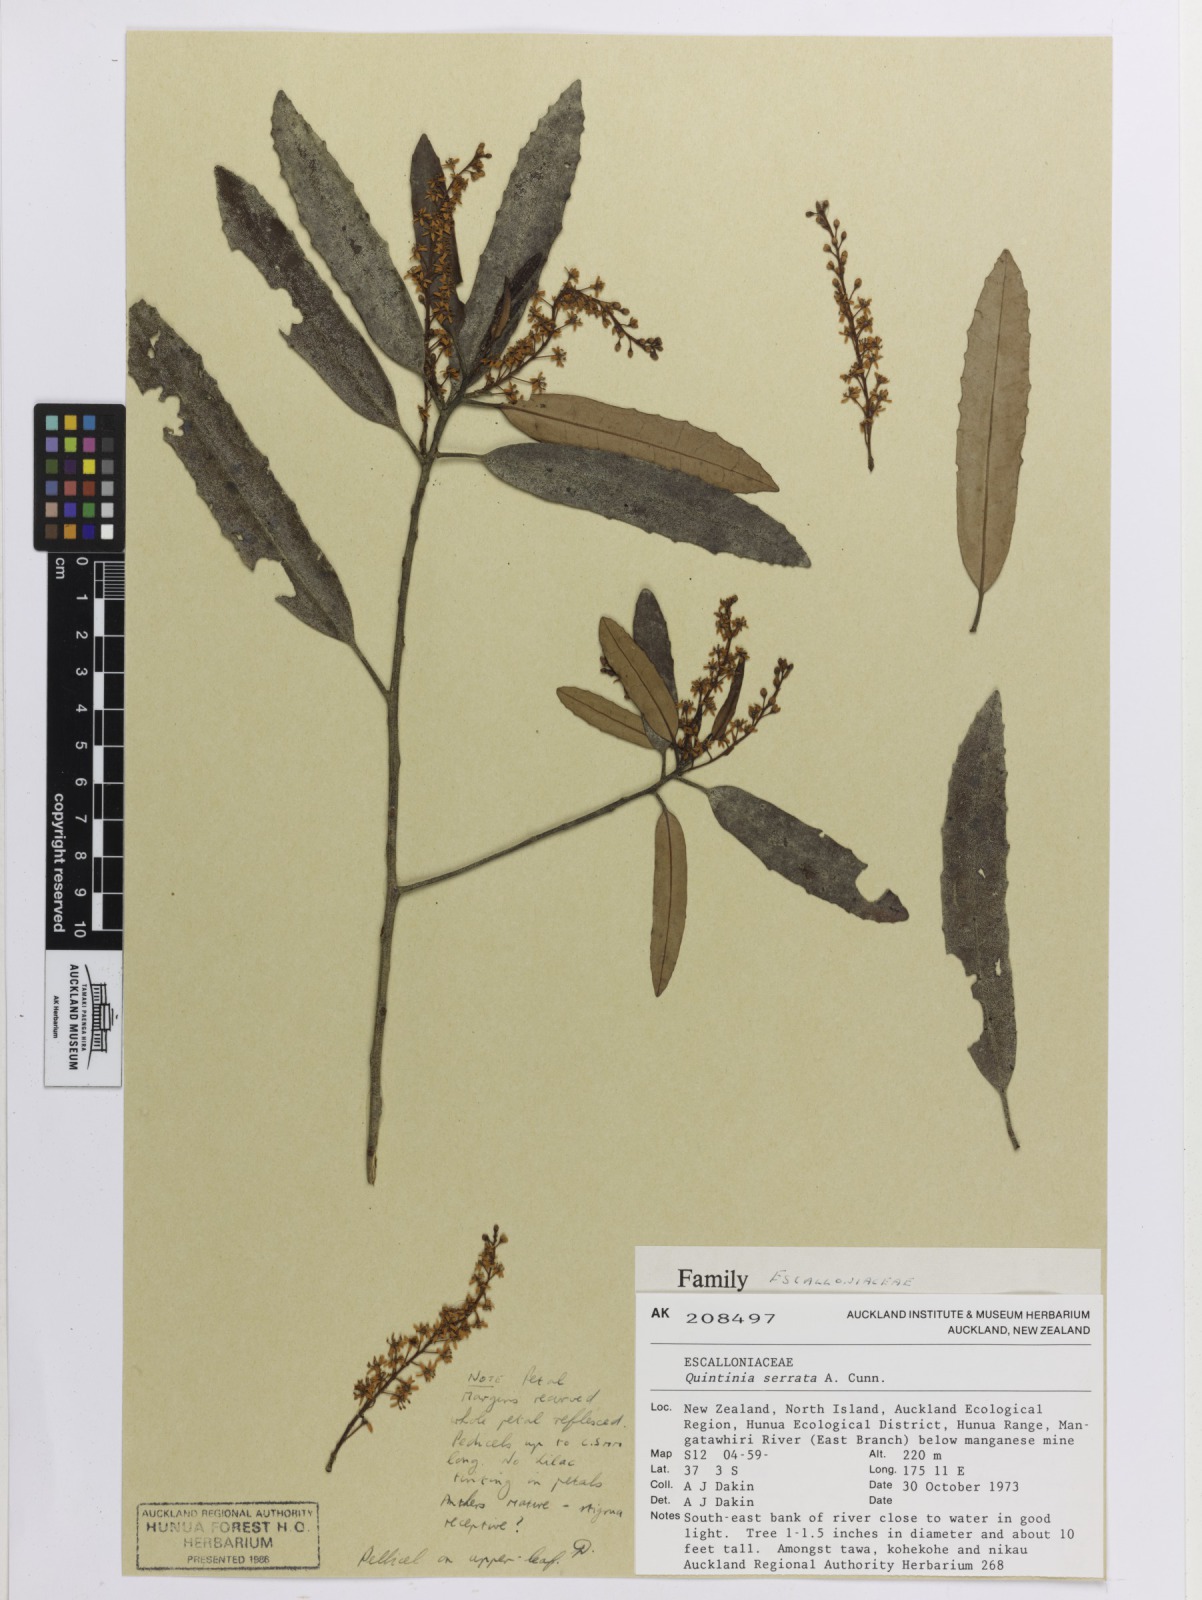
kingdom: Plantae
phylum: Tracheophyta
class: Magnoliopsida
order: Paracryphiales
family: Paracryphiaceae
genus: Quintinia
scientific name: Quintinia serrata
